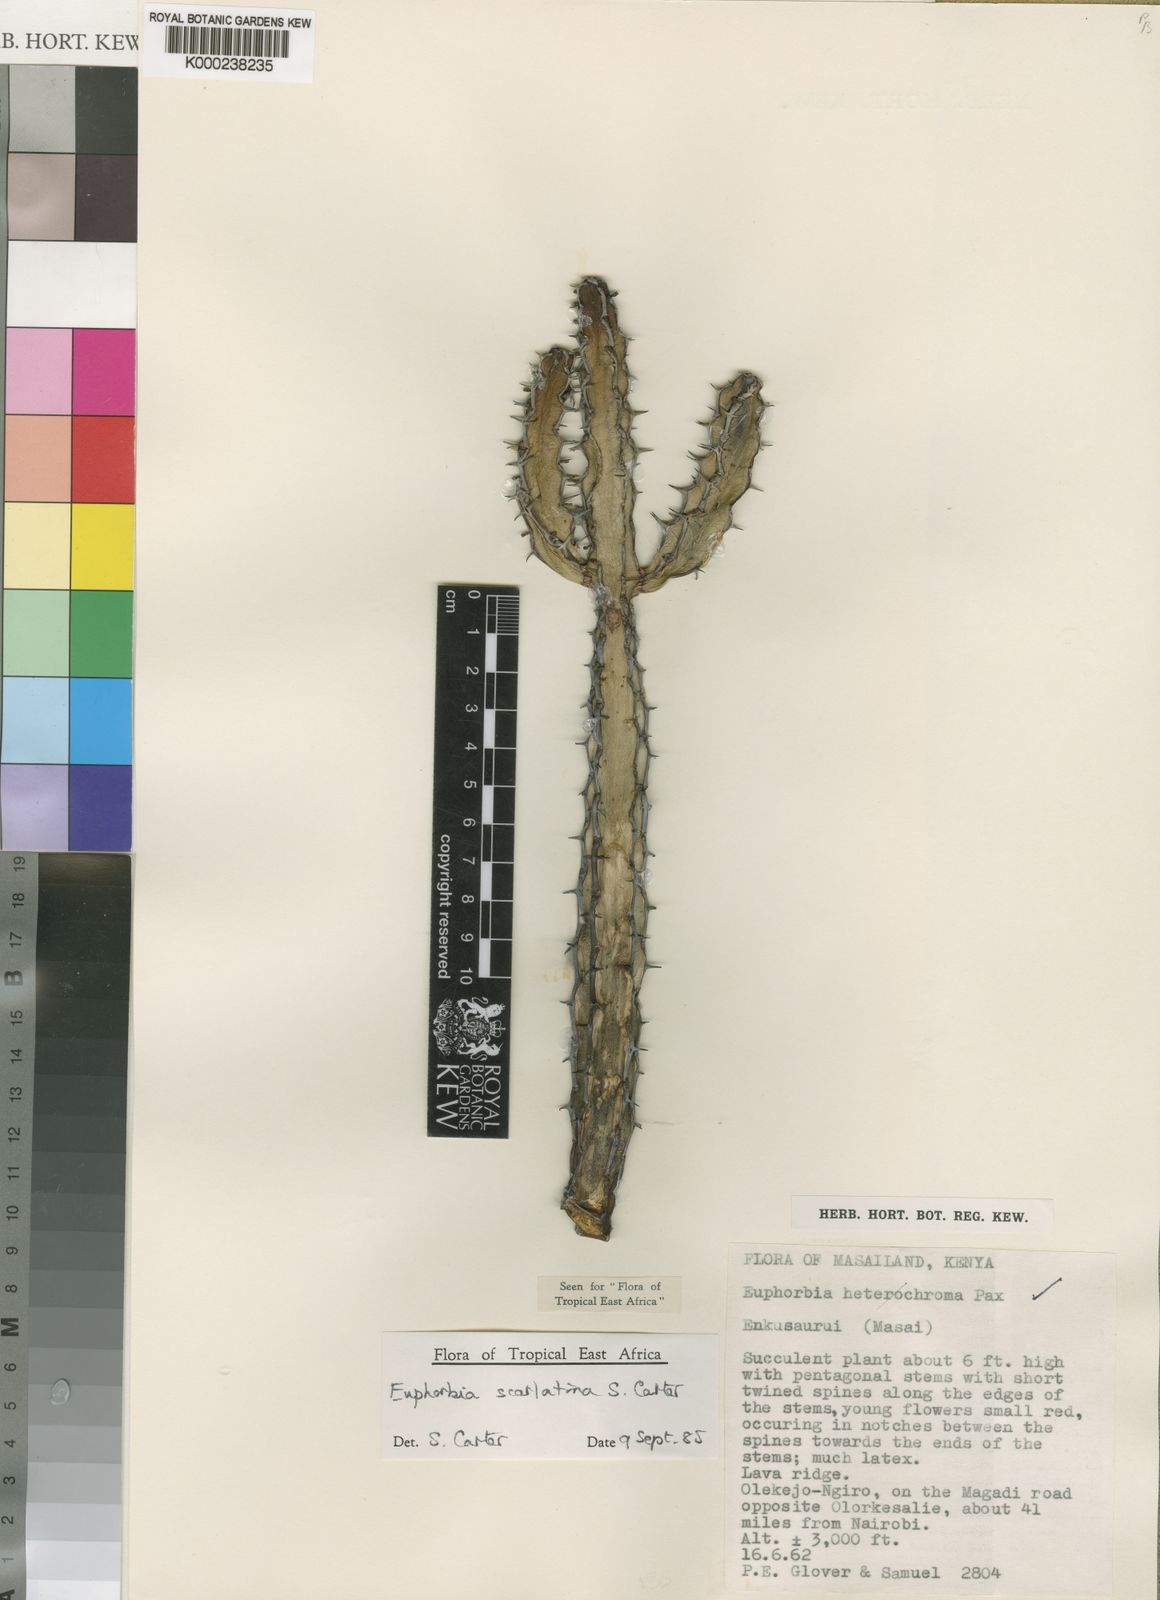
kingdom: Plantae
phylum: Tracheophyta
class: Magnoliopsida
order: Malpighiales
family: Euphorbiaceae
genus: Euphorbia
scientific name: Euphorbia scarlatina
